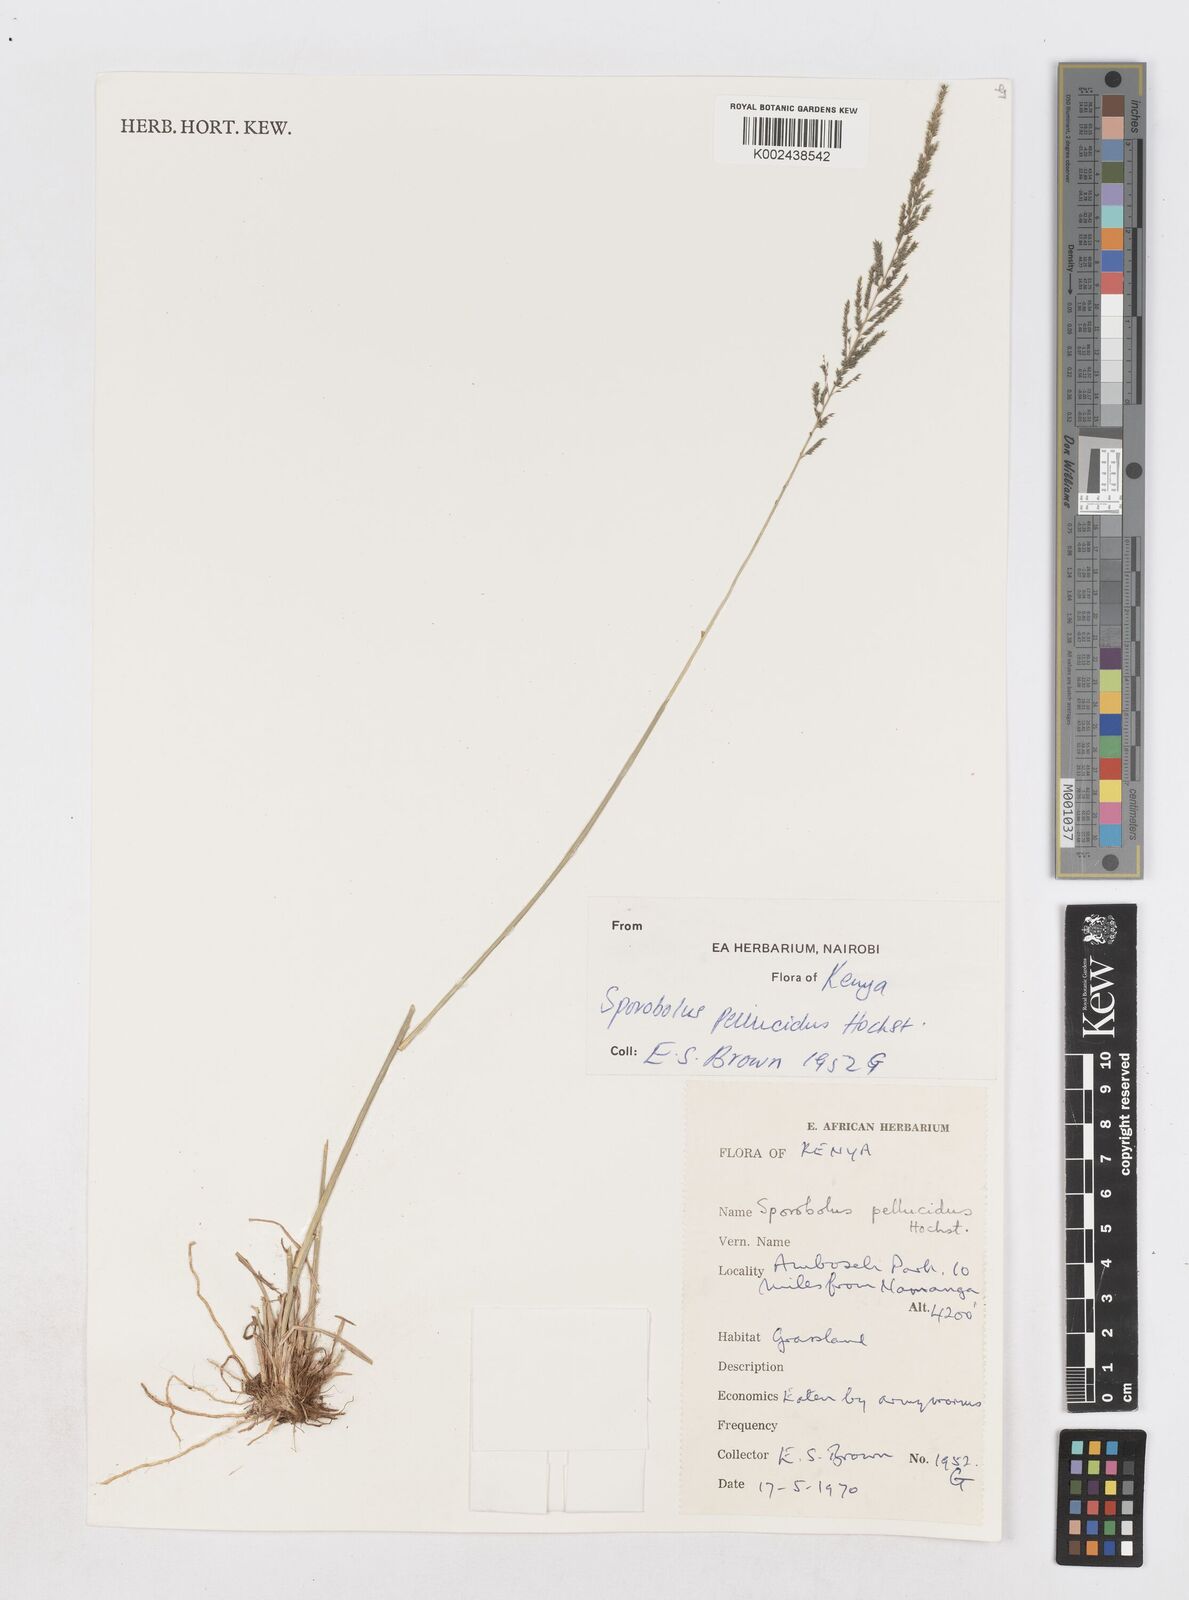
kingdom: Plantae
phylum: Tracheophyta
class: Liliopsida
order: Poales
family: Poaceae
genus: Sporobolus
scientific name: Sporobolus pellucidus
